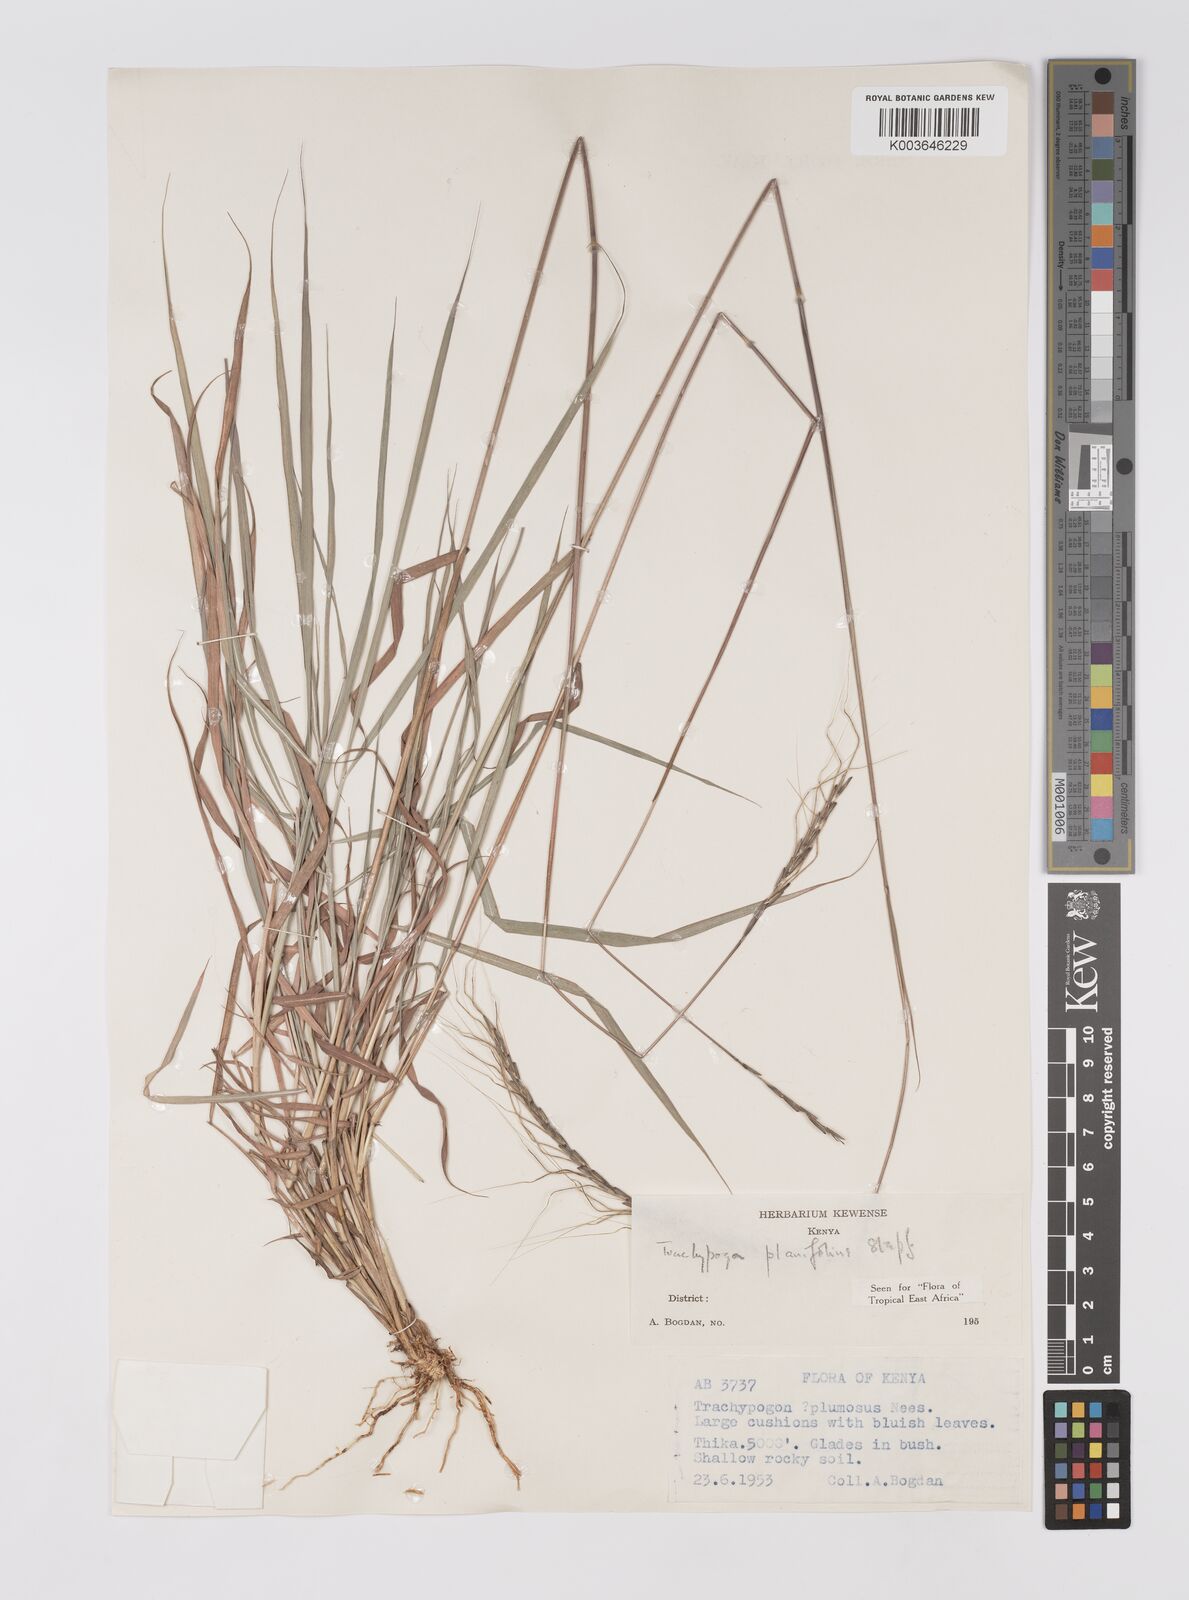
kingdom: Plantae
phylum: Tracheophyta
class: Liliopsida
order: Poales
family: Poaceae
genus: Trachypogon
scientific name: Trachypogon spicatus
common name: Crinkle-awn
